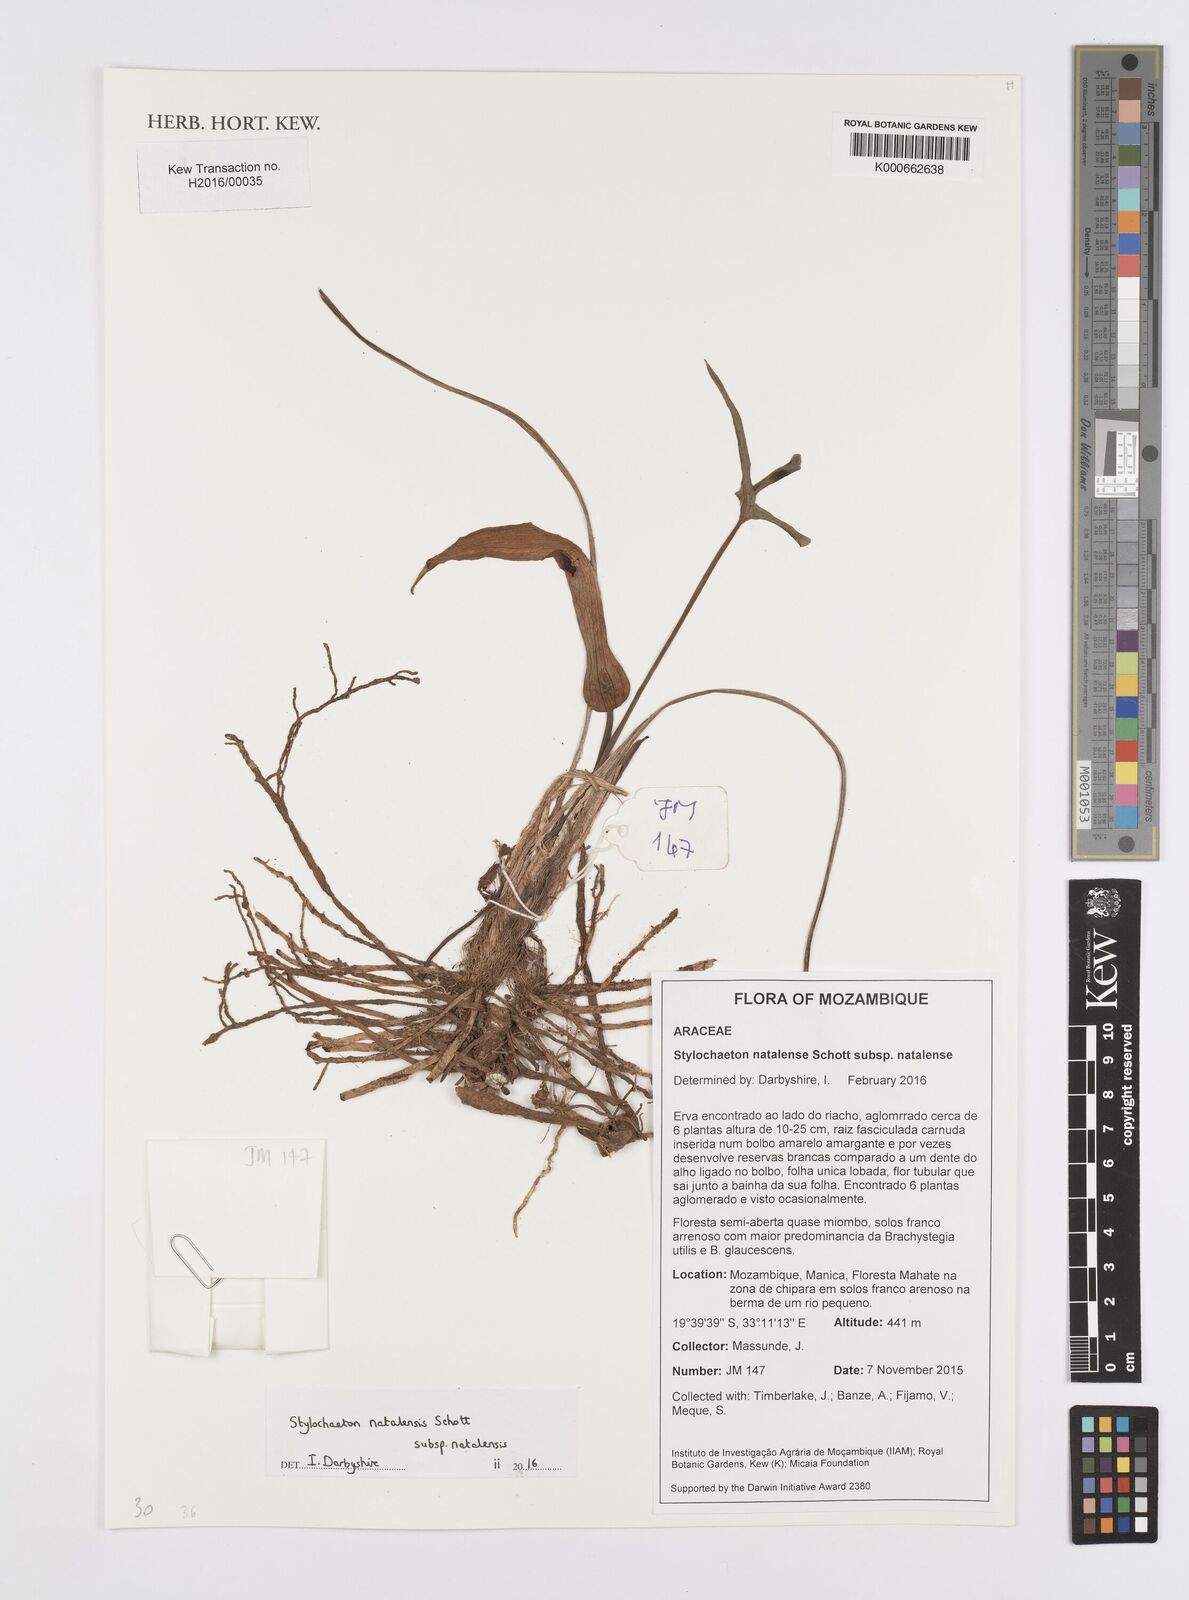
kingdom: Plantae
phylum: Tracheophyta
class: Liliopsida
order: Alismatales
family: Araceae
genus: Stylochaeton
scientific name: Stylochaeton zenkeri
